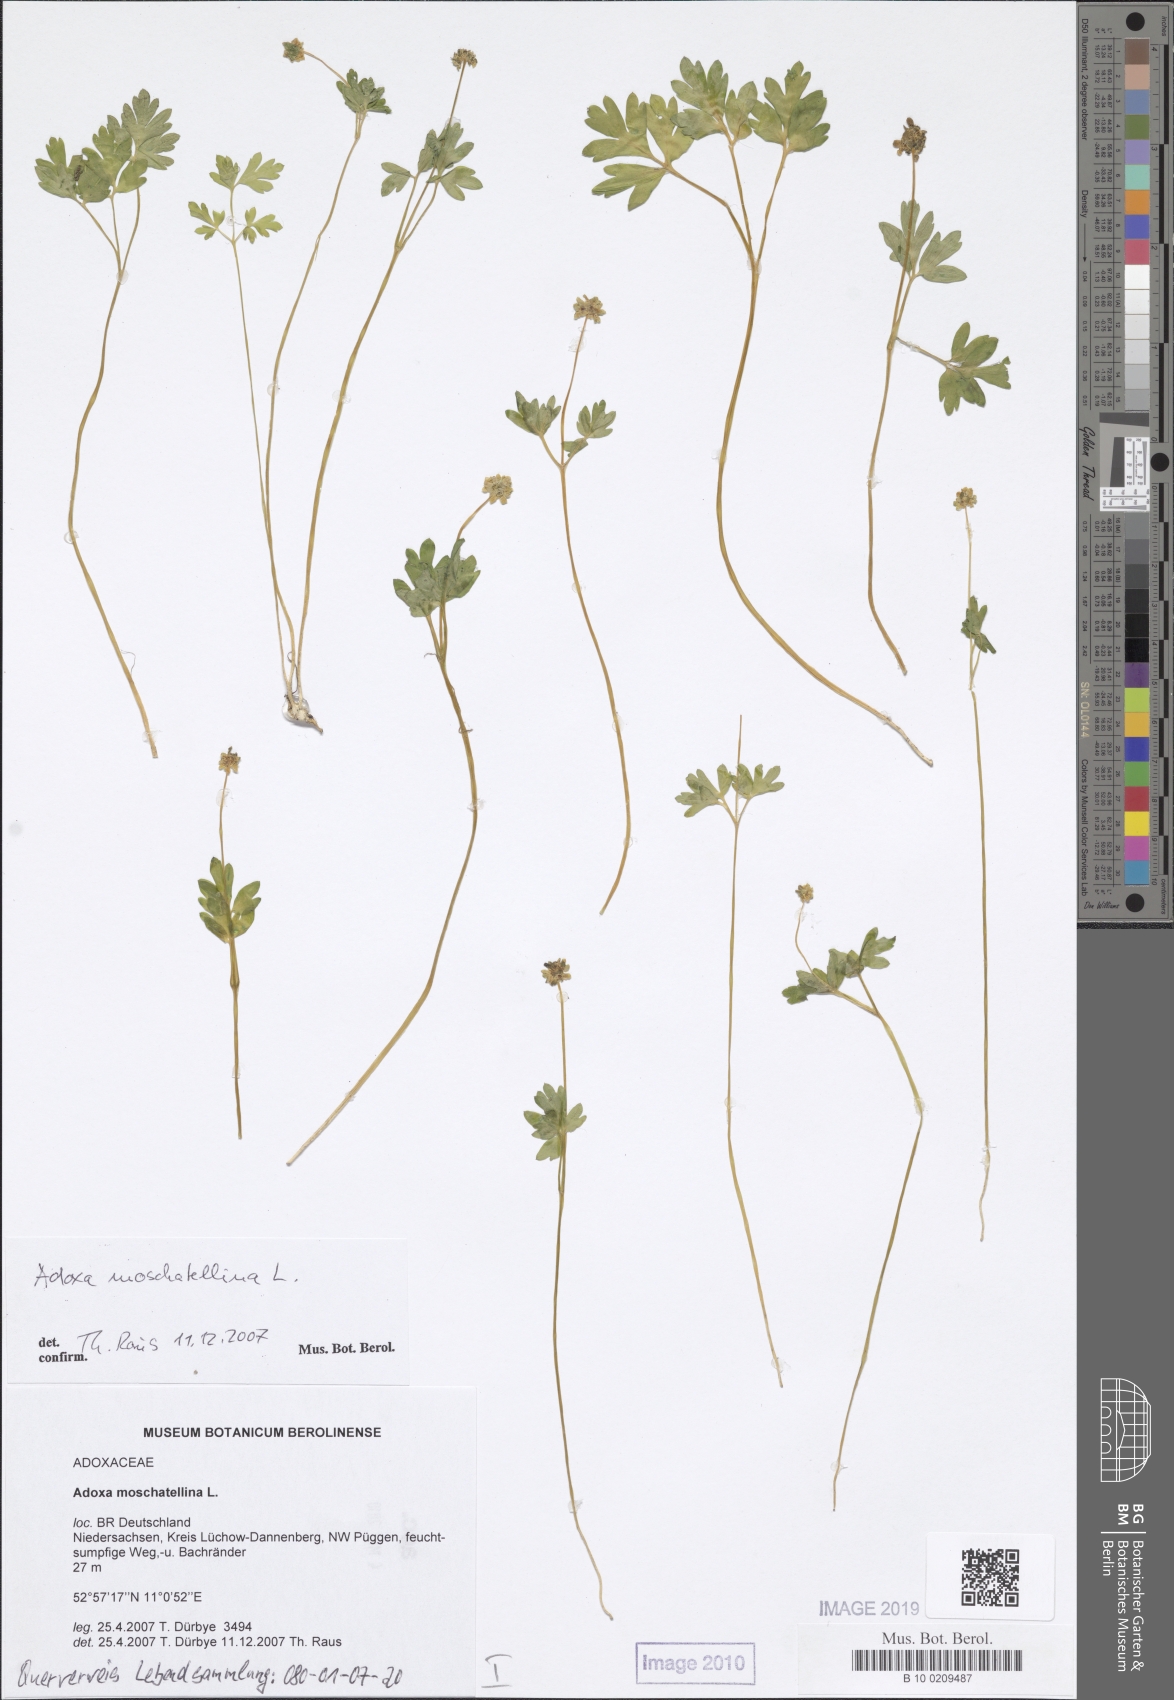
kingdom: Plantae
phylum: Tracheophyta
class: Magnoliopsida
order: Dipsacales
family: Viburnaceae
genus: Adoxa
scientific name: Adoxa moschatellina
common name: Moschatel
